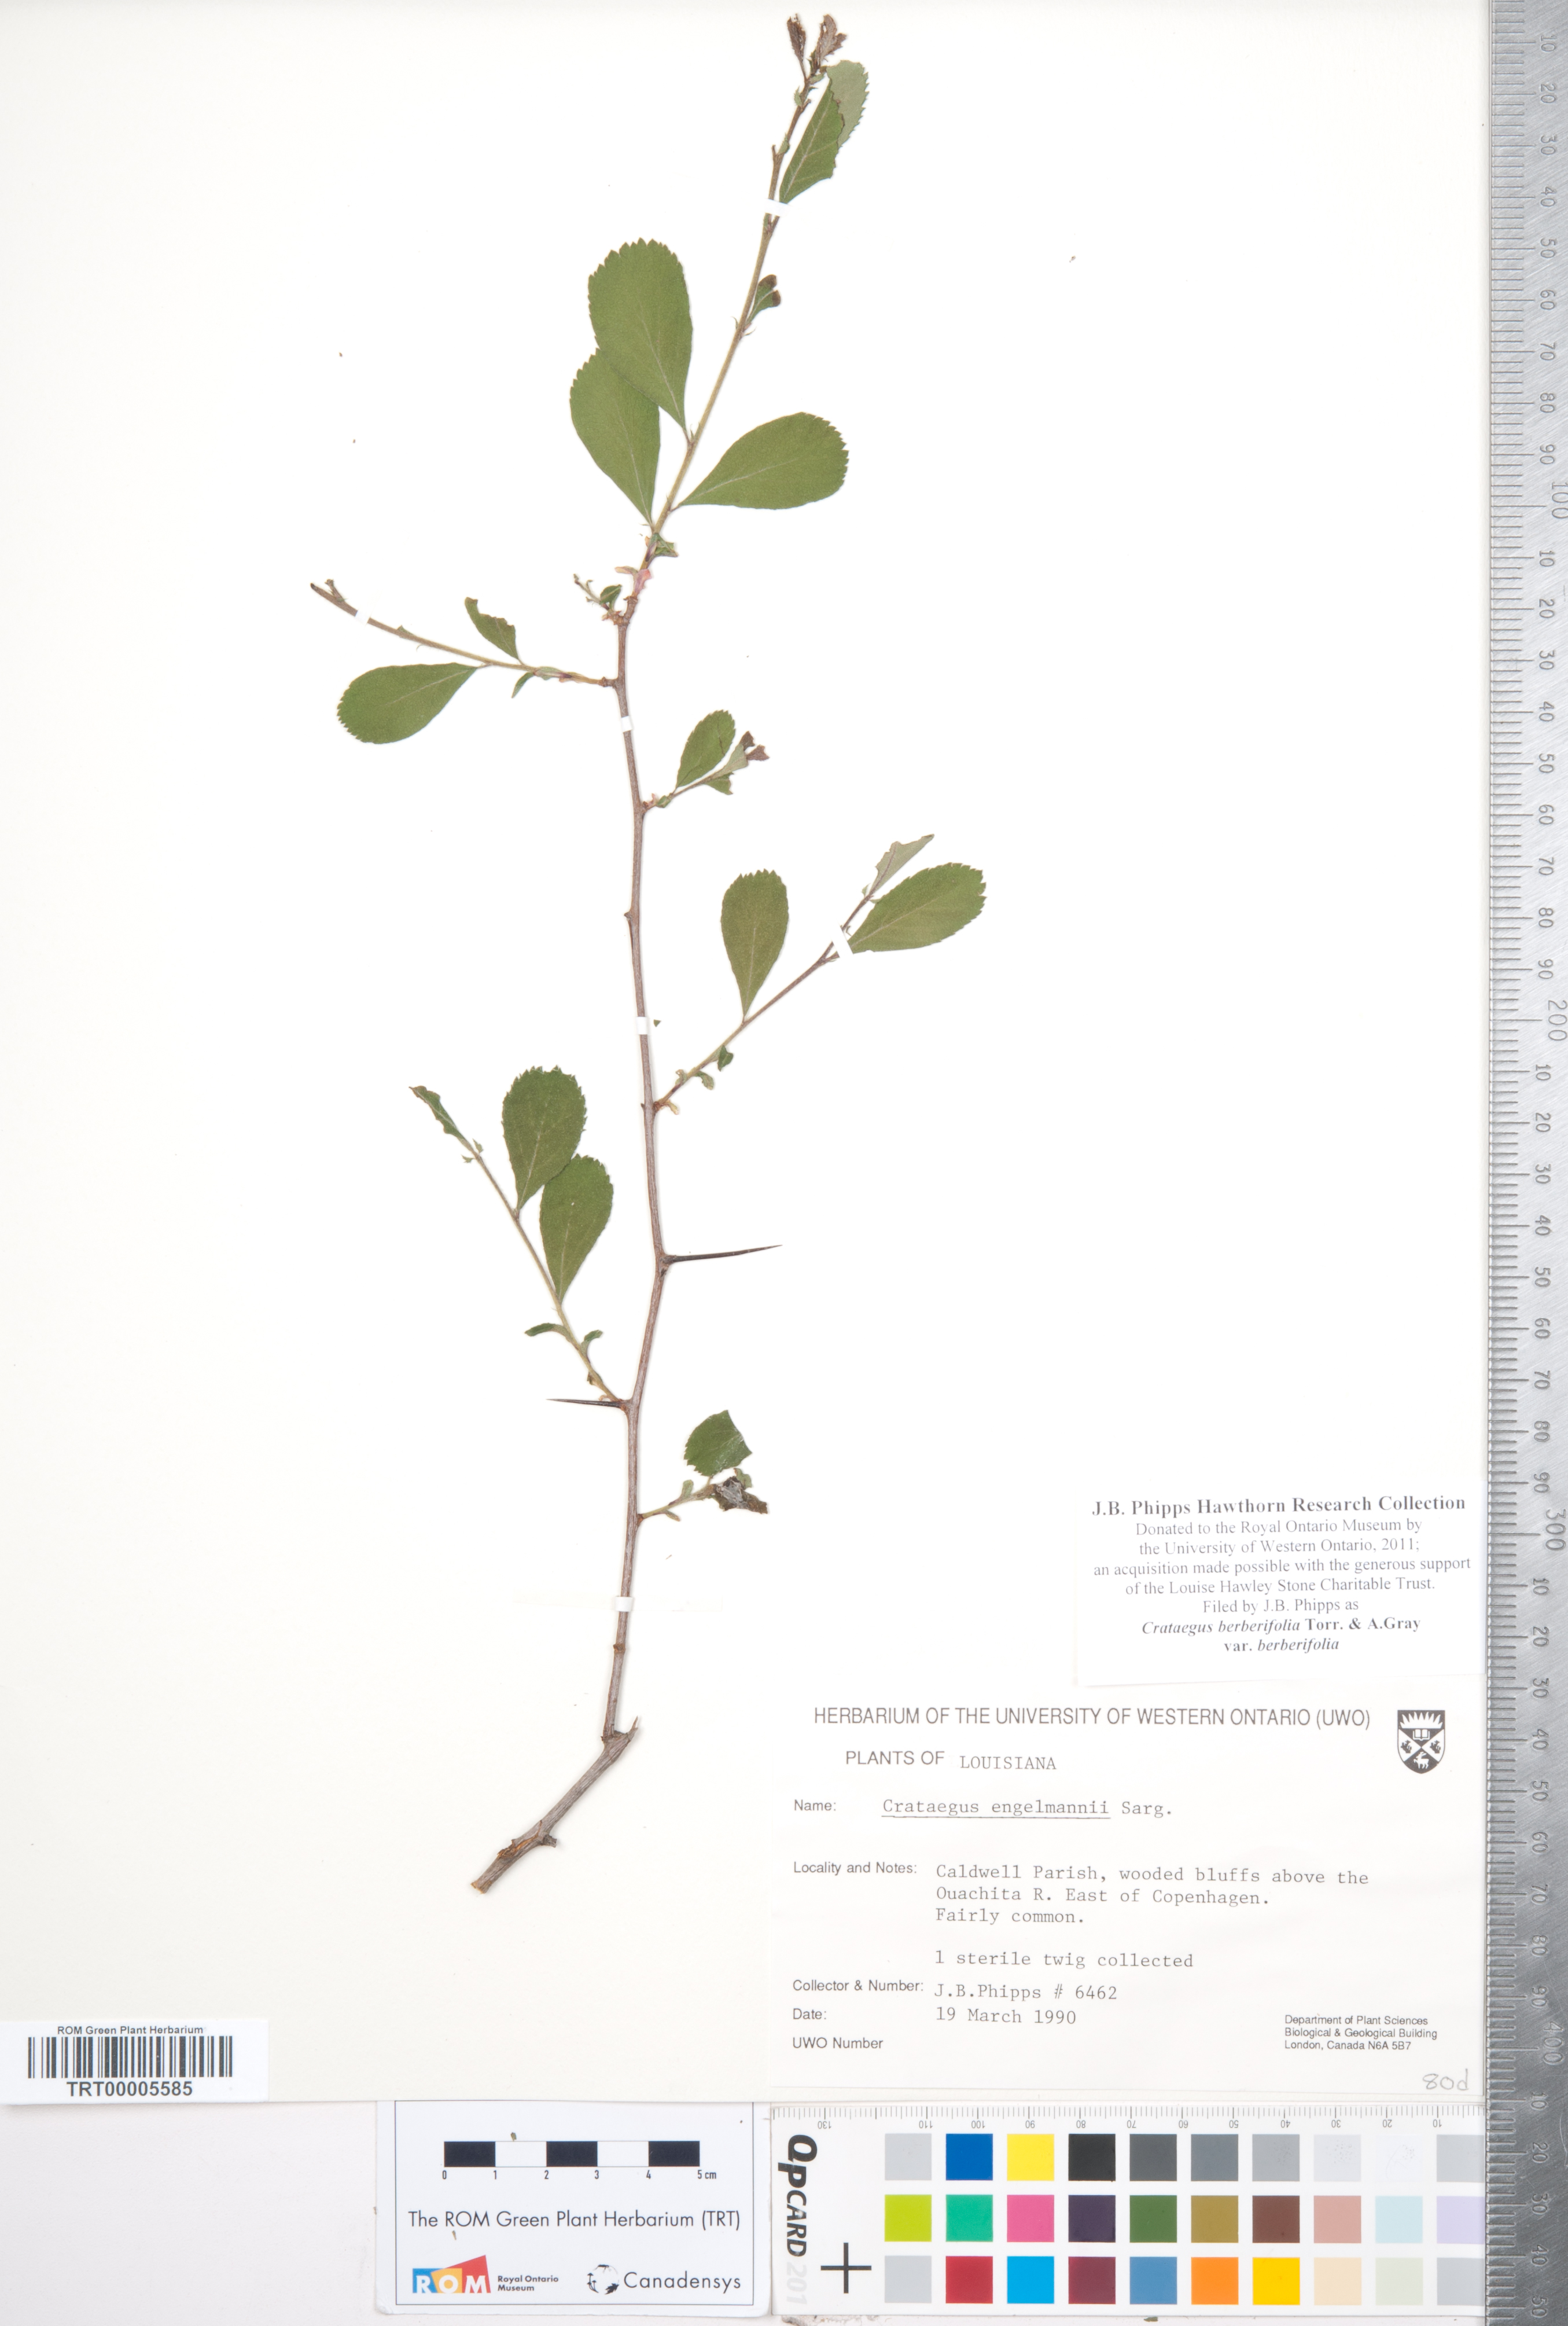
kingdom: Plantae
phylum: Tracheophyta
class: Magnoliopsida
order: Rosales
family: Rosaceae
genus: Crataegus
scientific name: Crataegus berberifolia
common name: Barberry hawthorn
